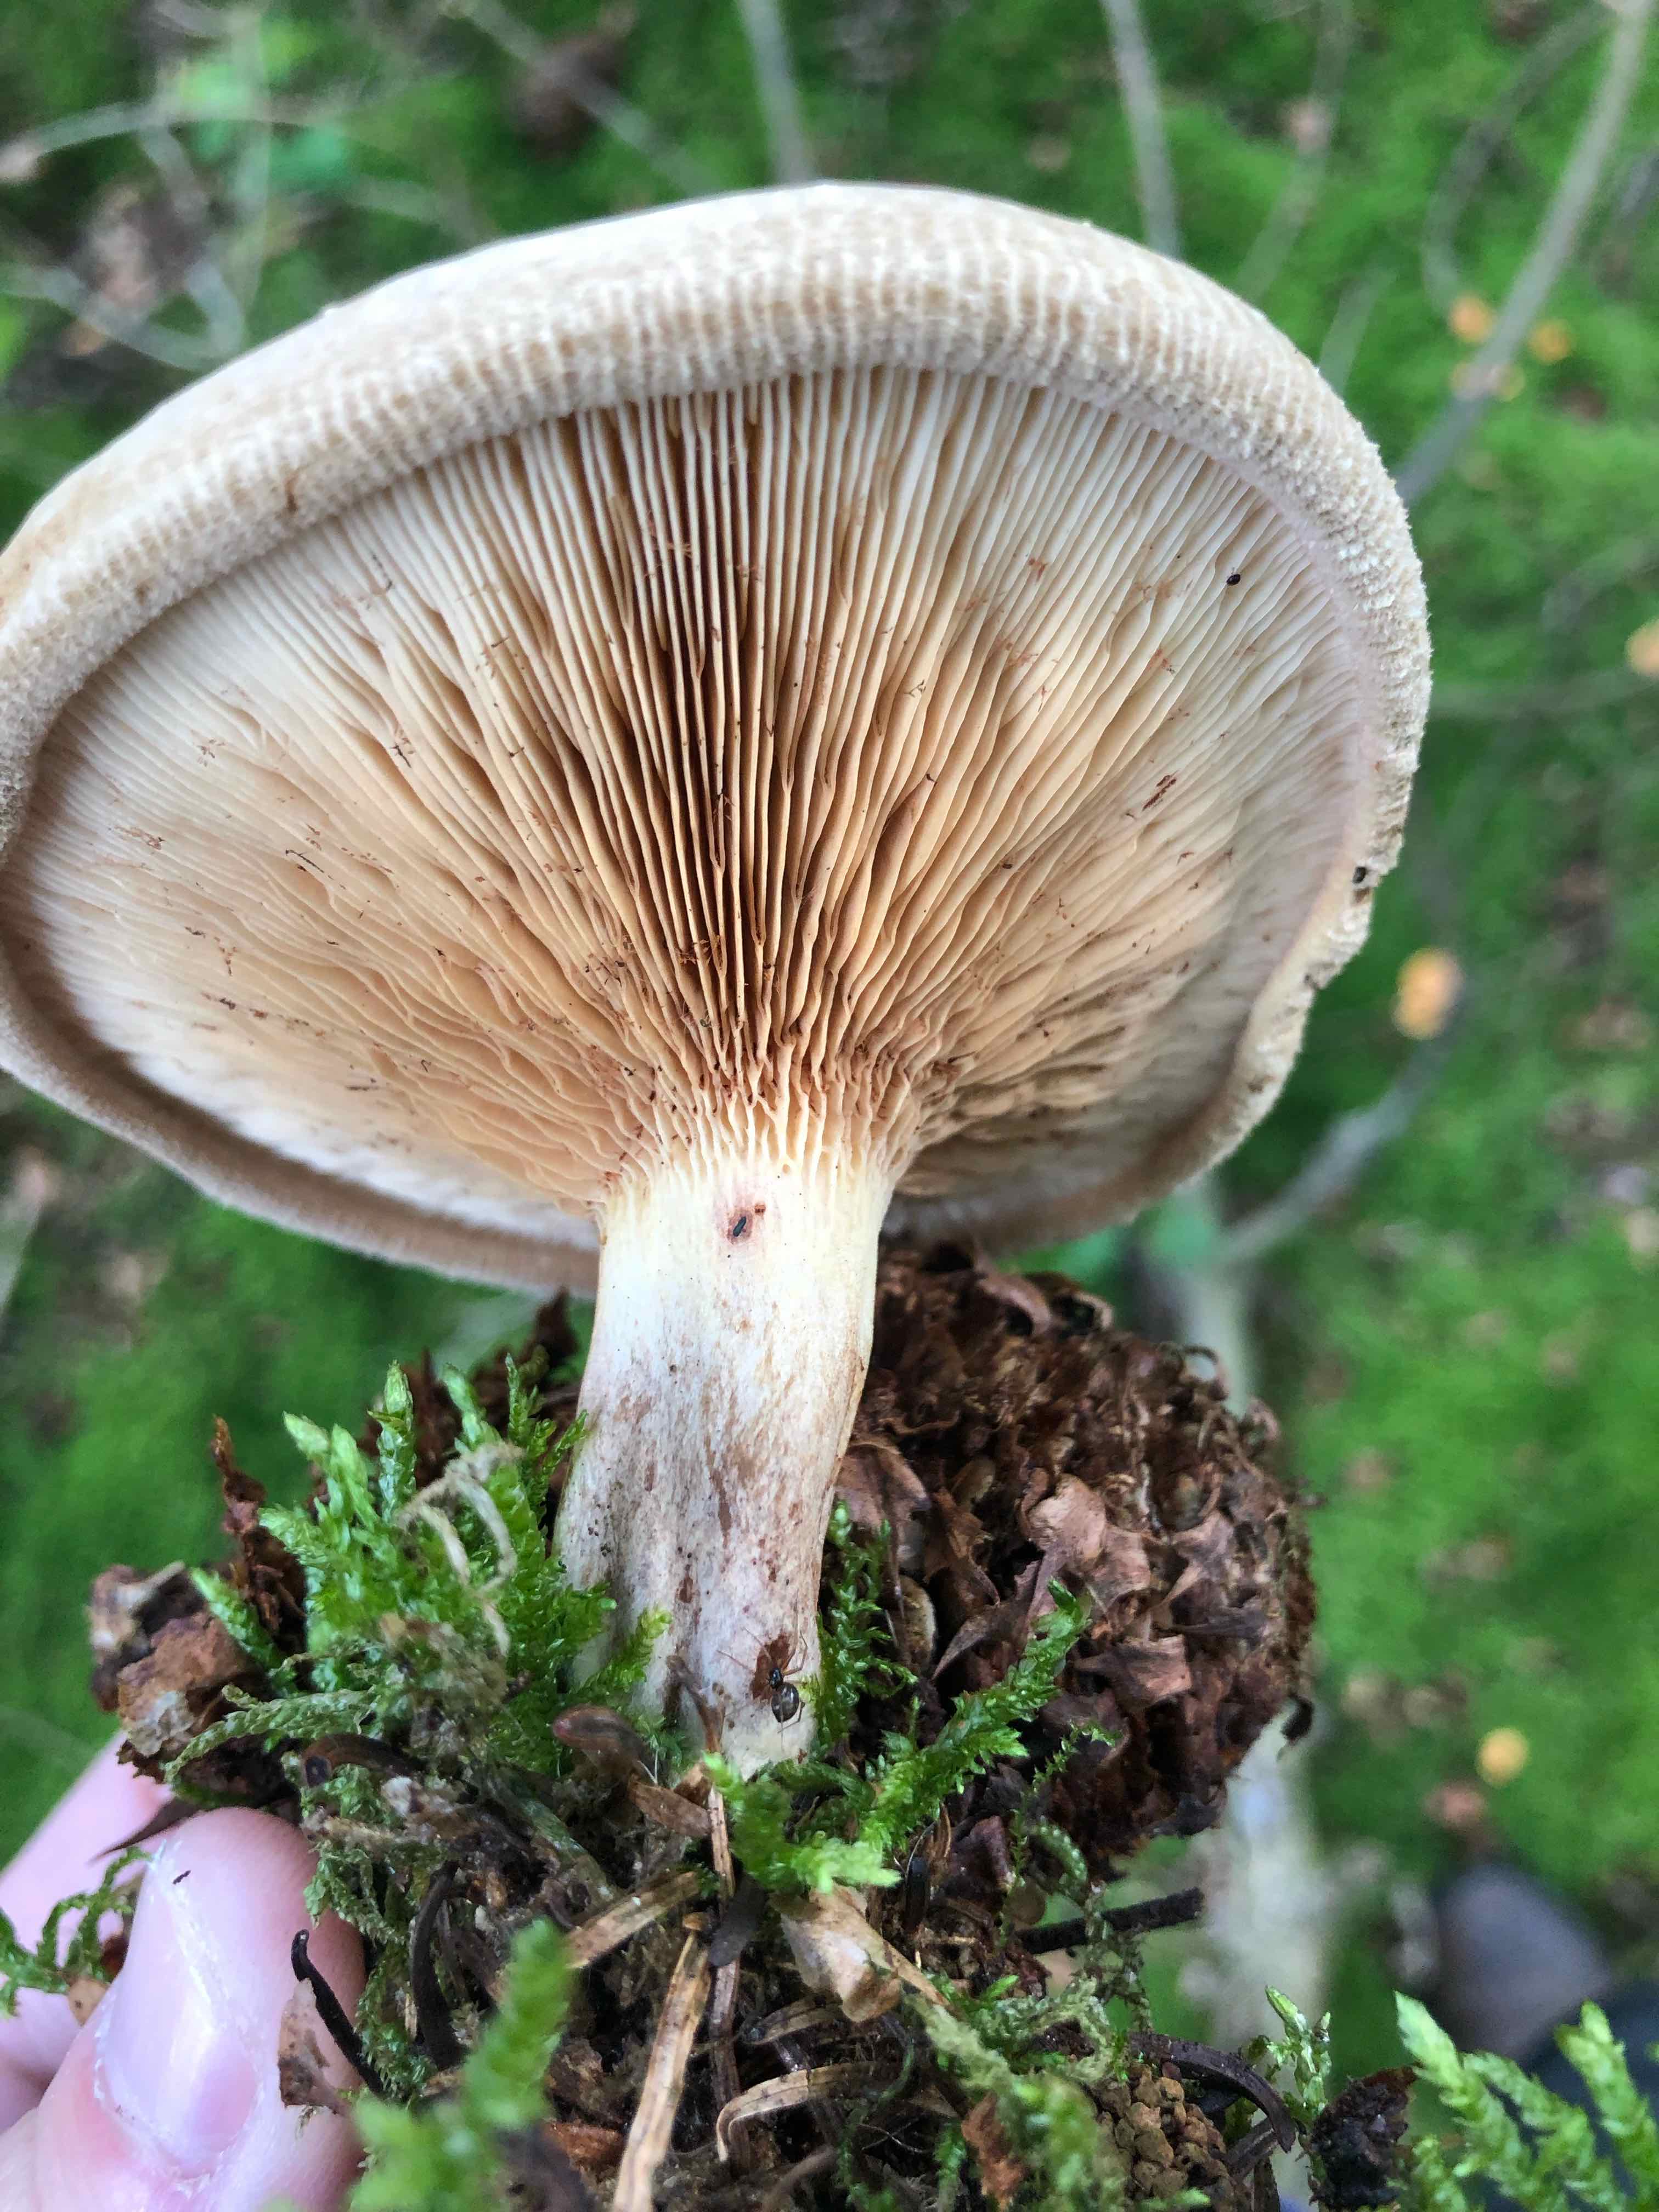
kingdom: Fungi
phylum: Basidiomycota
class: Agaricomycetes
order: Boletales
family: Paxillaceae
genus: Paxillus
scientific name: Paxillus involutus
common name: almindelig netbladhat
